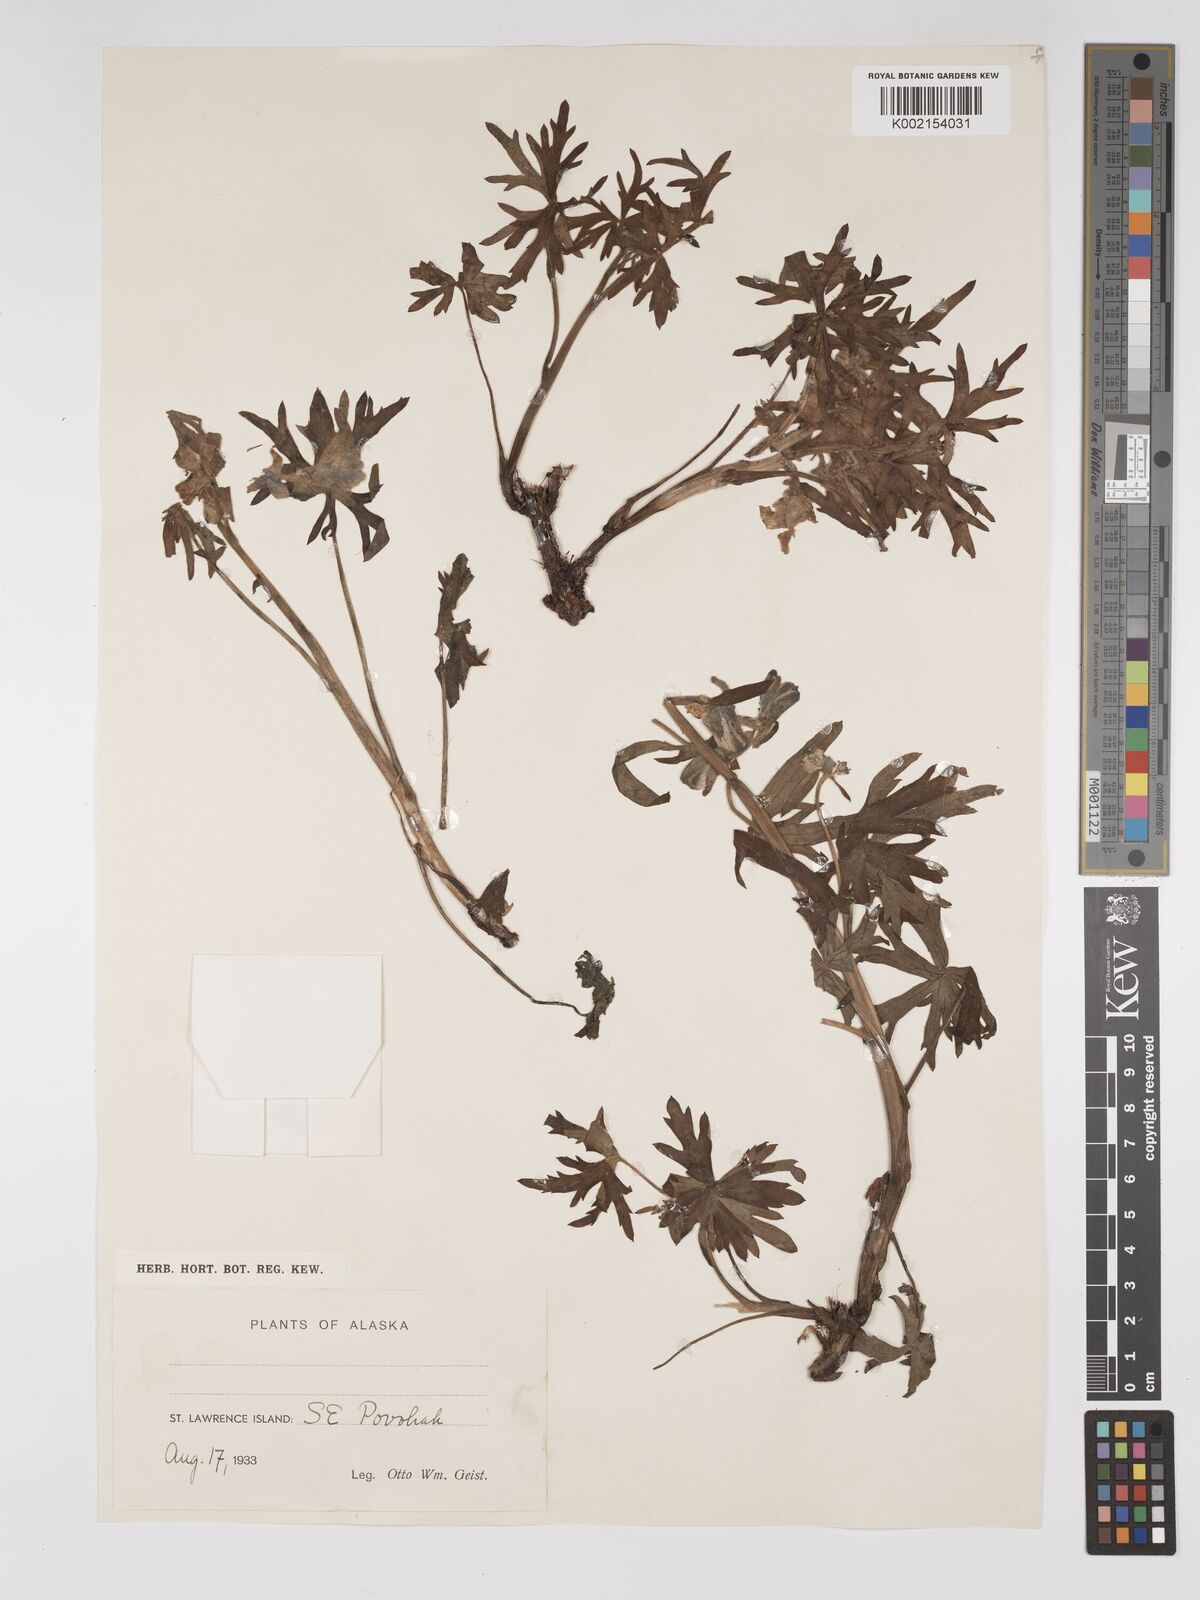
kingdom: Plantae
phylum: Tracheophyta
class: Magnoliopsida
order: Ranunculales
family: Ranunculaceae
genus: Delphinium
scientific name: Delphinium
